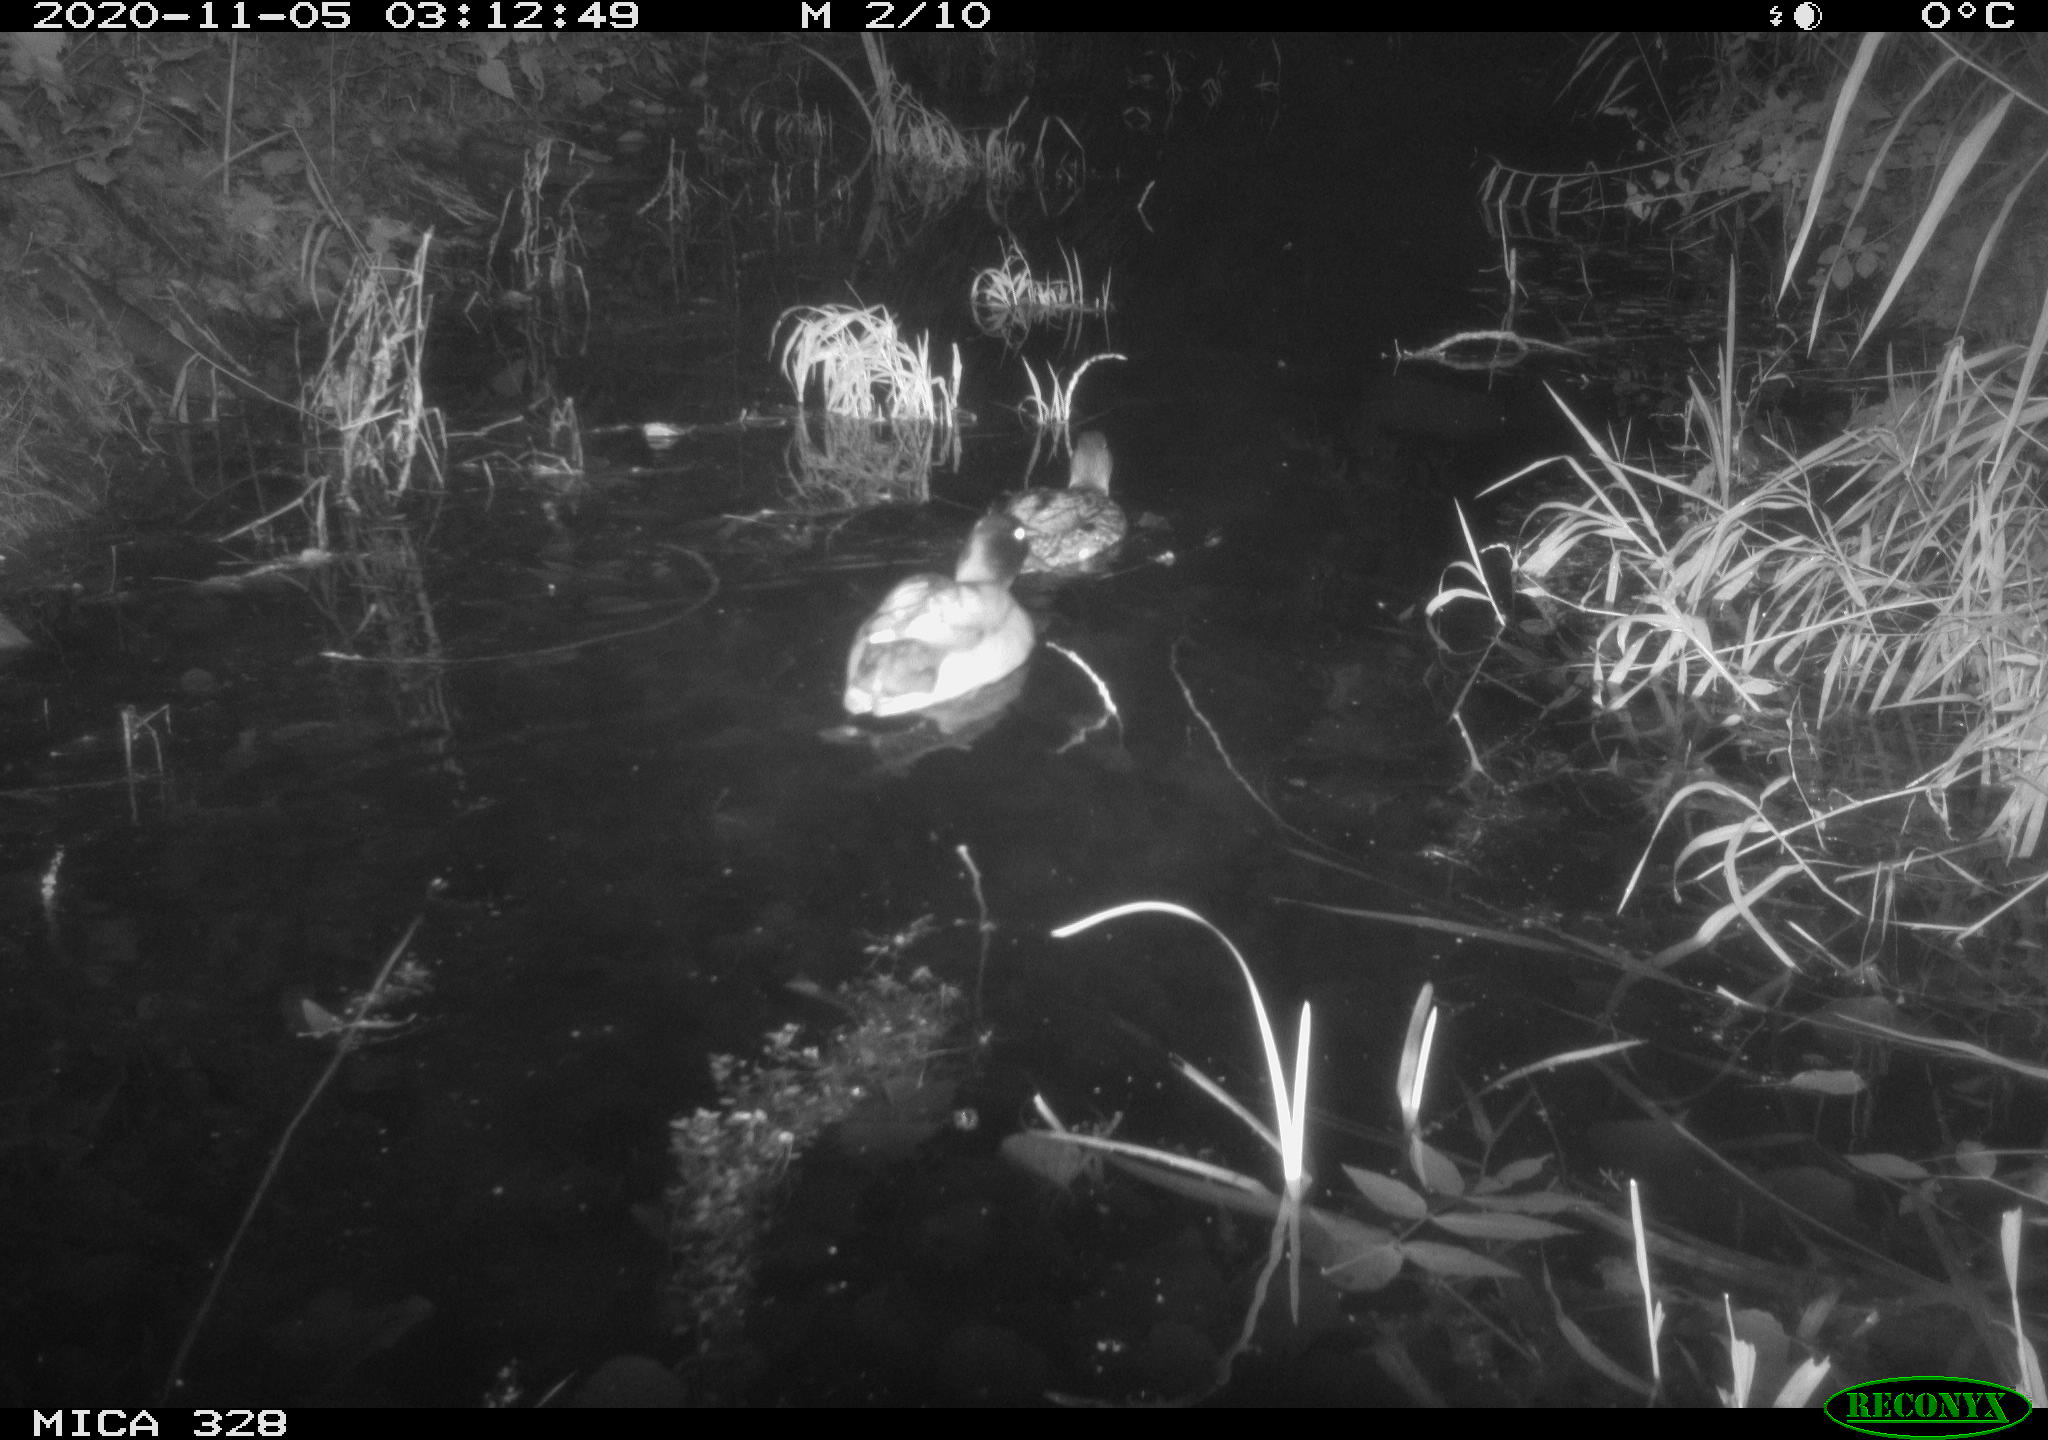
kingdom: Animalia
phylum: Chordata
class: Aves
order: Anseriformes
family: Anatidae
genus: Anas
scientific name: Anas platyrhynchos
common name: Mallard
